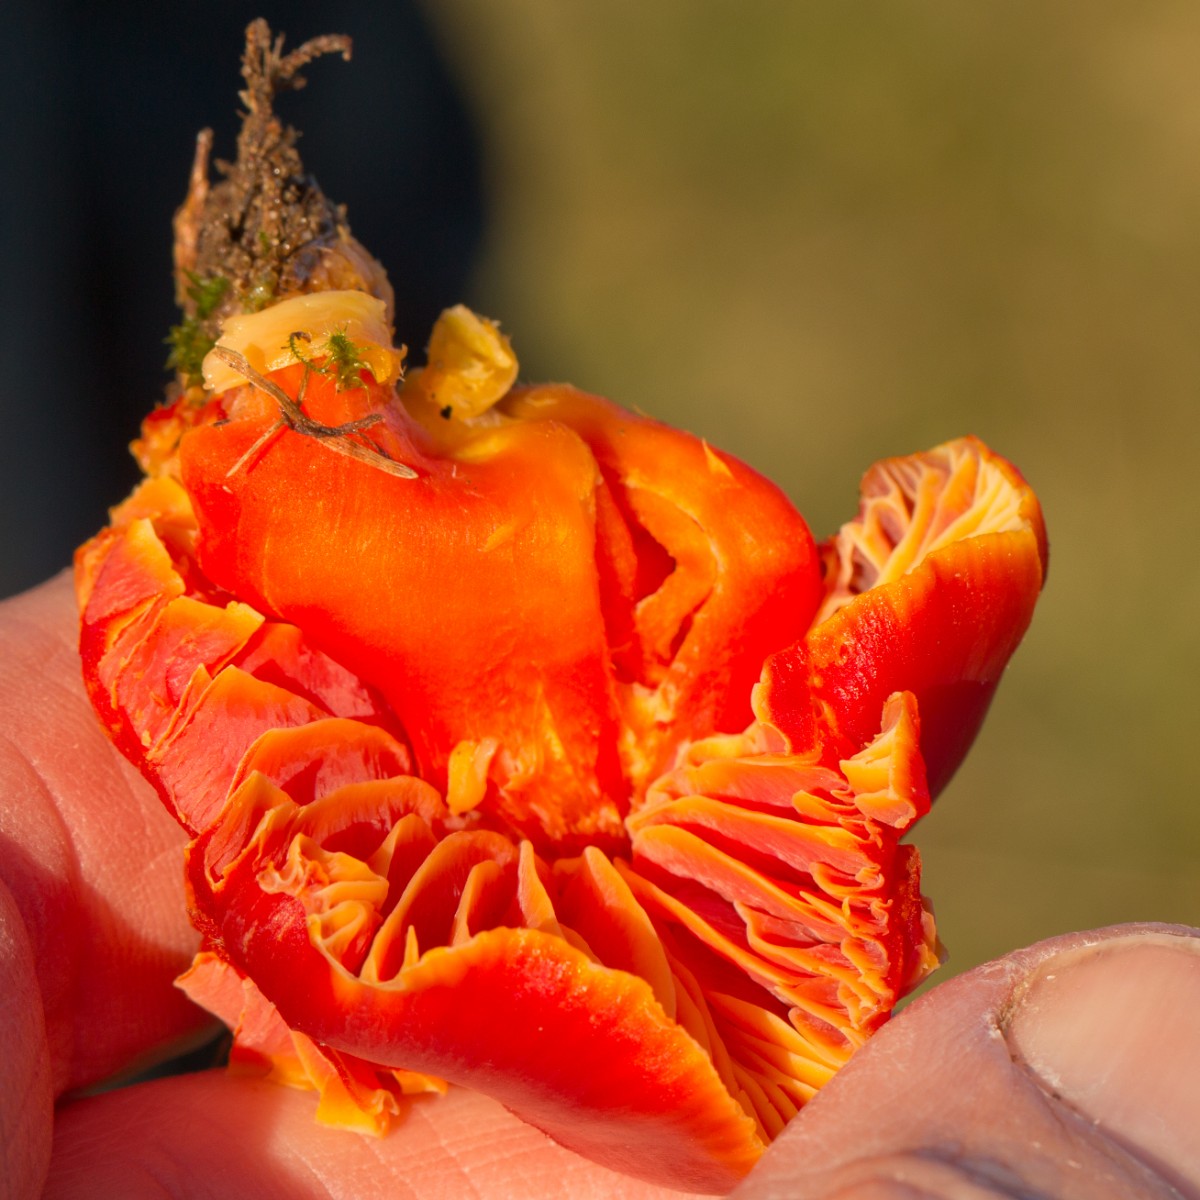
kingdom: Fungi
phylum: Basidiomycota
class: Agaricomycetes
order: Agaricales
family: Hygrophoraceae
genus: Hygrocybe
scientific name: Hygrocybe
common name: vokshat
